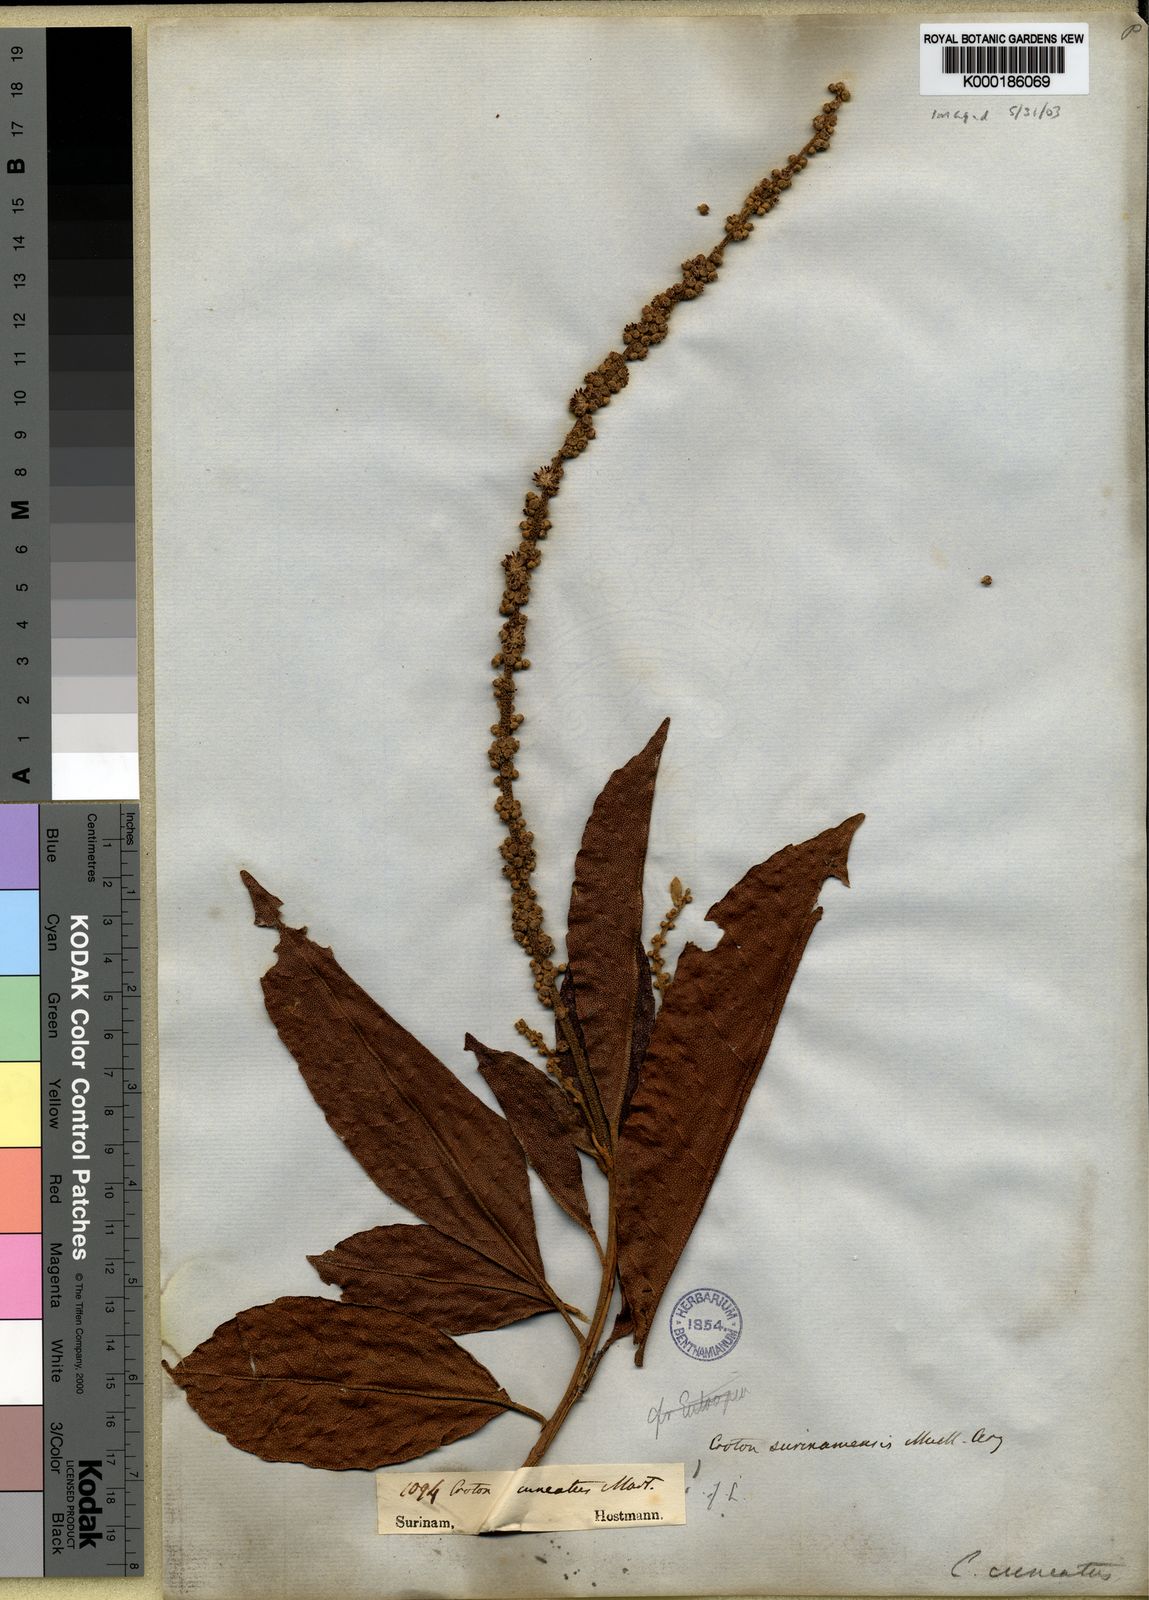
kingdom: Plantae
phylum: Tracheophyta
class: Magnoliopsida
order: Malpighiales
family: Euphorbiaceae
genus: Croton
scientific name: Croton cuneatus
